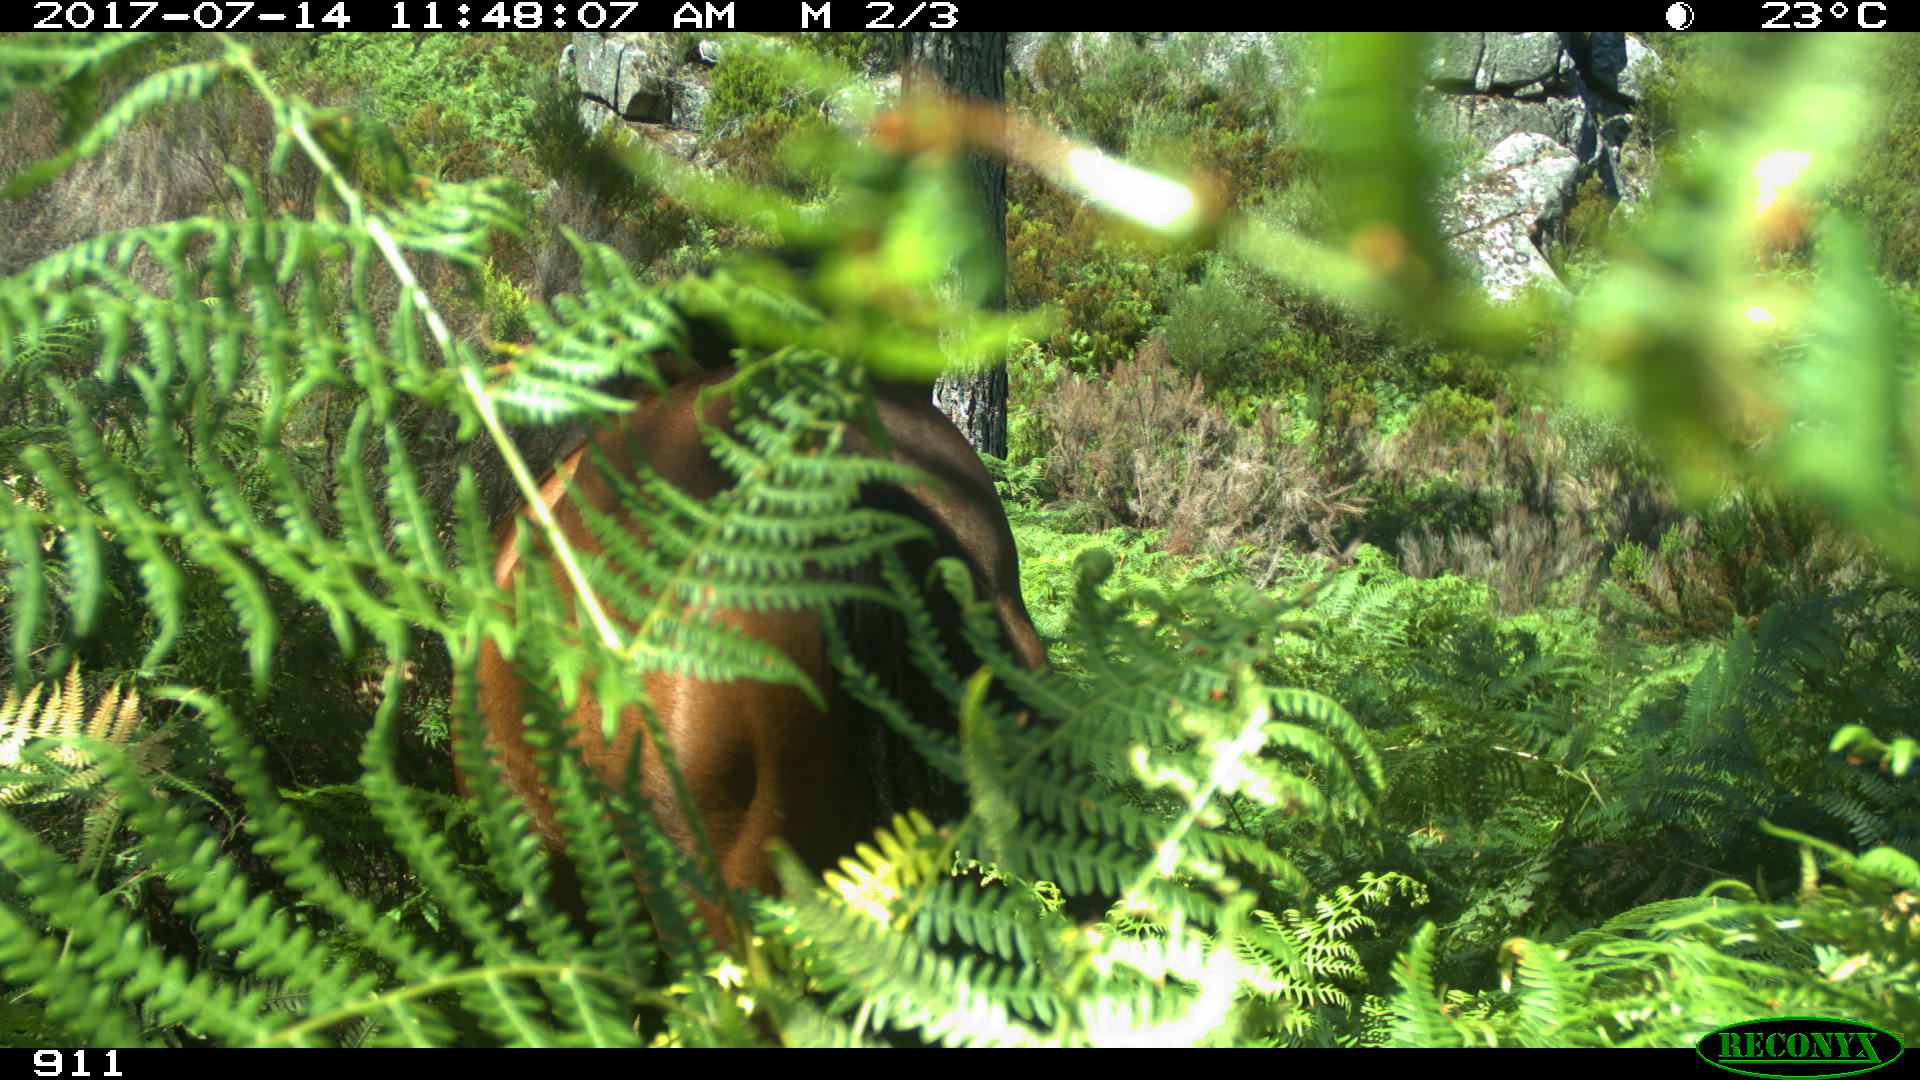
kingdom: Animalia
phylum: Chordata
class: Mammalia
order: Perissodactyla
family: Equidae
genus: Equus
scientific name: Equus caballus
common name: Horse
